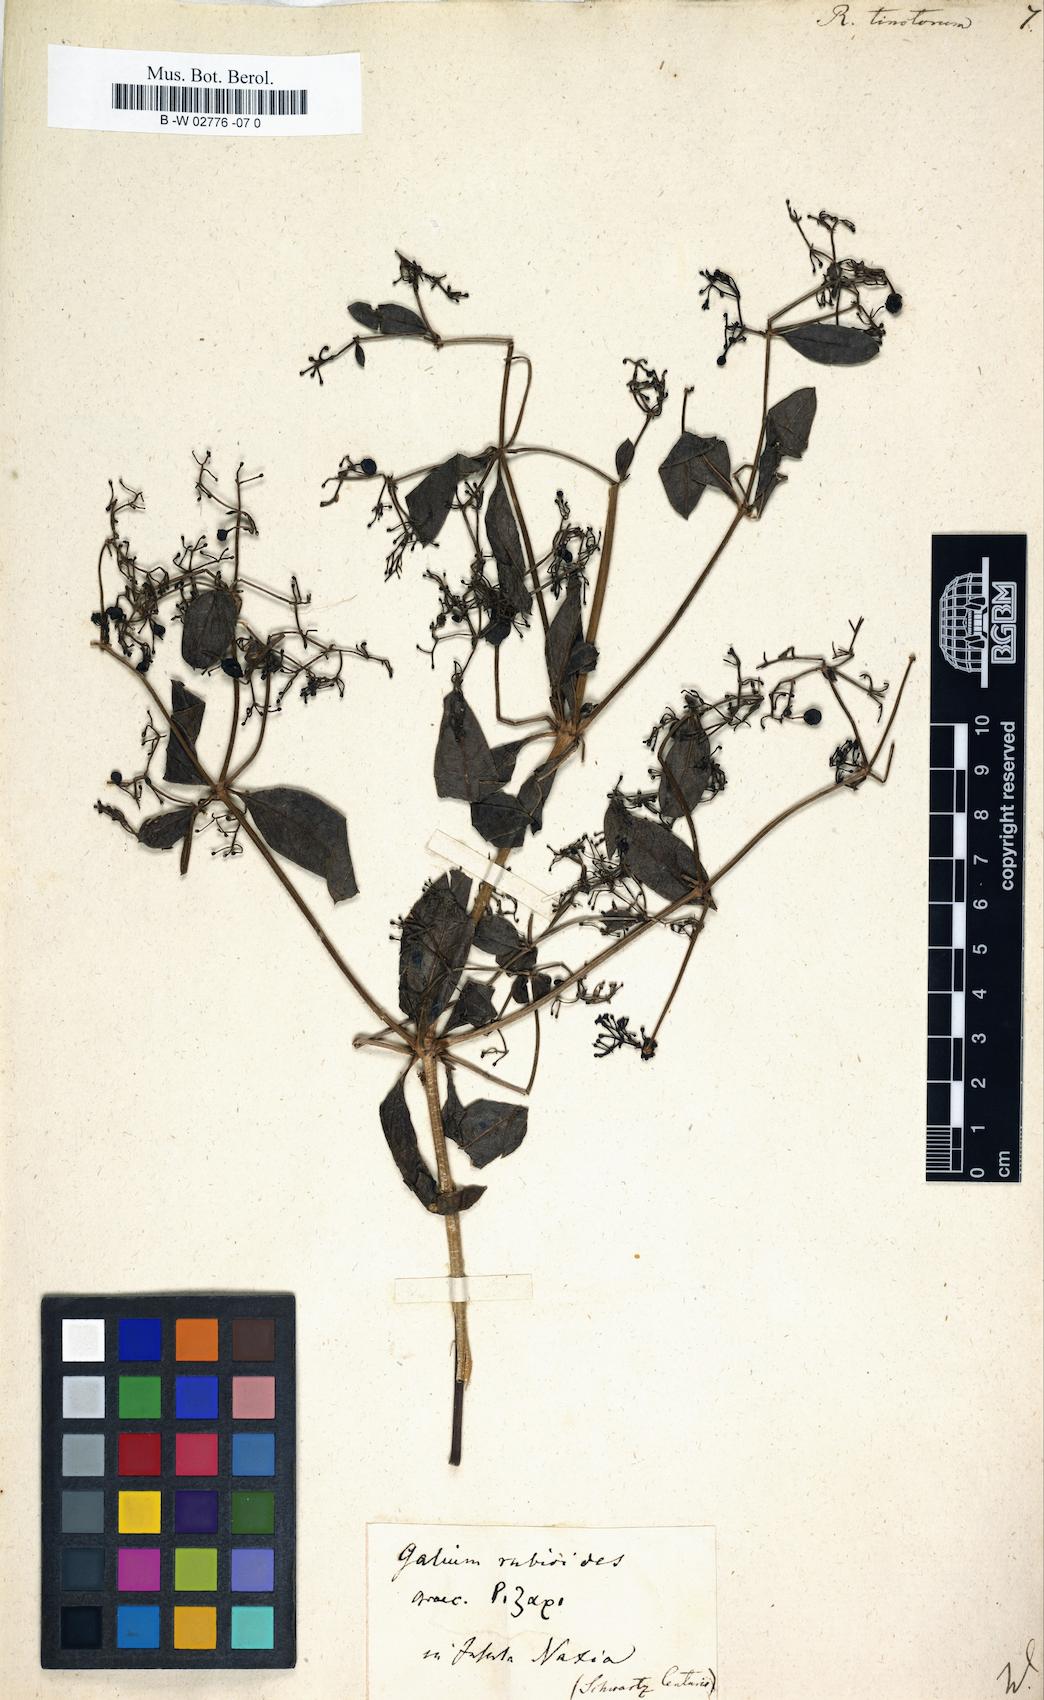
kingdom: Plantae
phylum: Tracheophyta
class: Magnoliopsida
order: Gentianales
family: Rubiaceae
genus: Rubia
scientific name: Rubia tinctorum
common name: Dyer's madder
